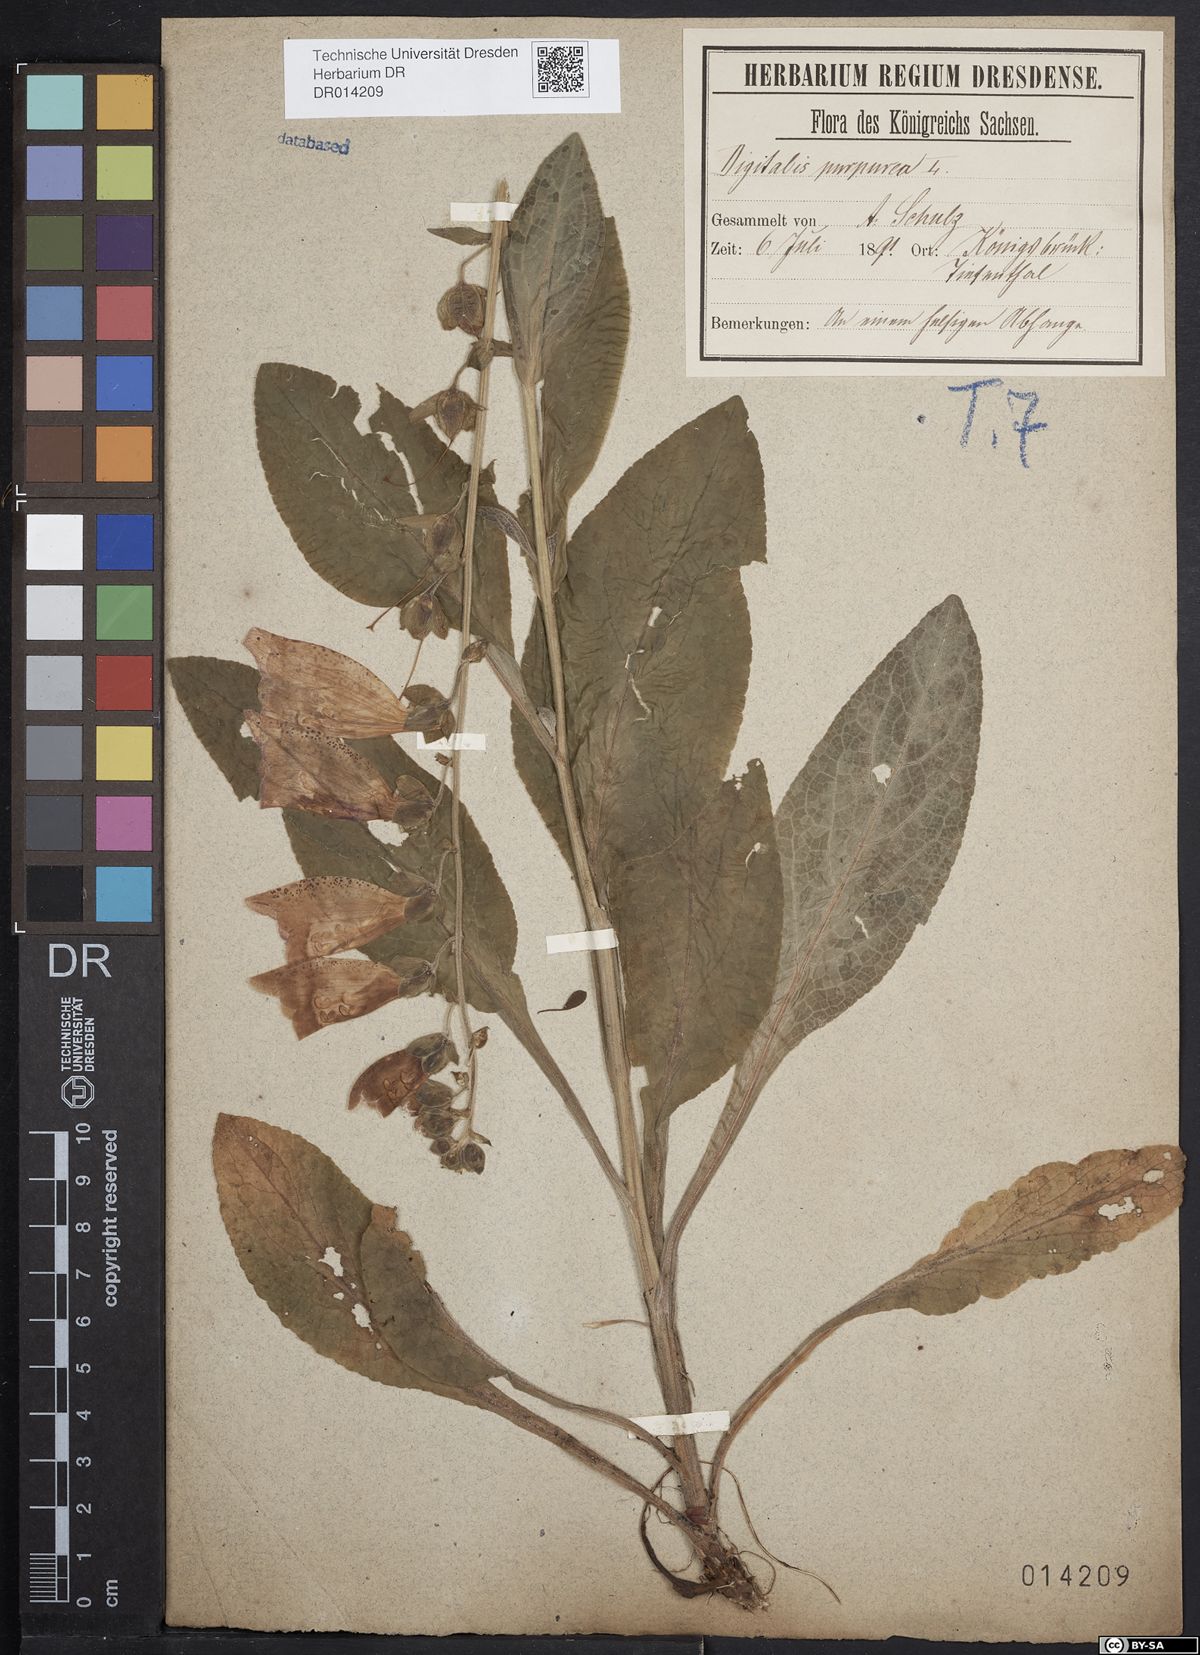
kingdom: Plantae
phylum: Tracheophyta
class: Magnoliopsida
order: Lamiales
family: Plantaginaceae
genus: Digitalis
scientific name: Digitalis purpurea
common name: Foxglove
